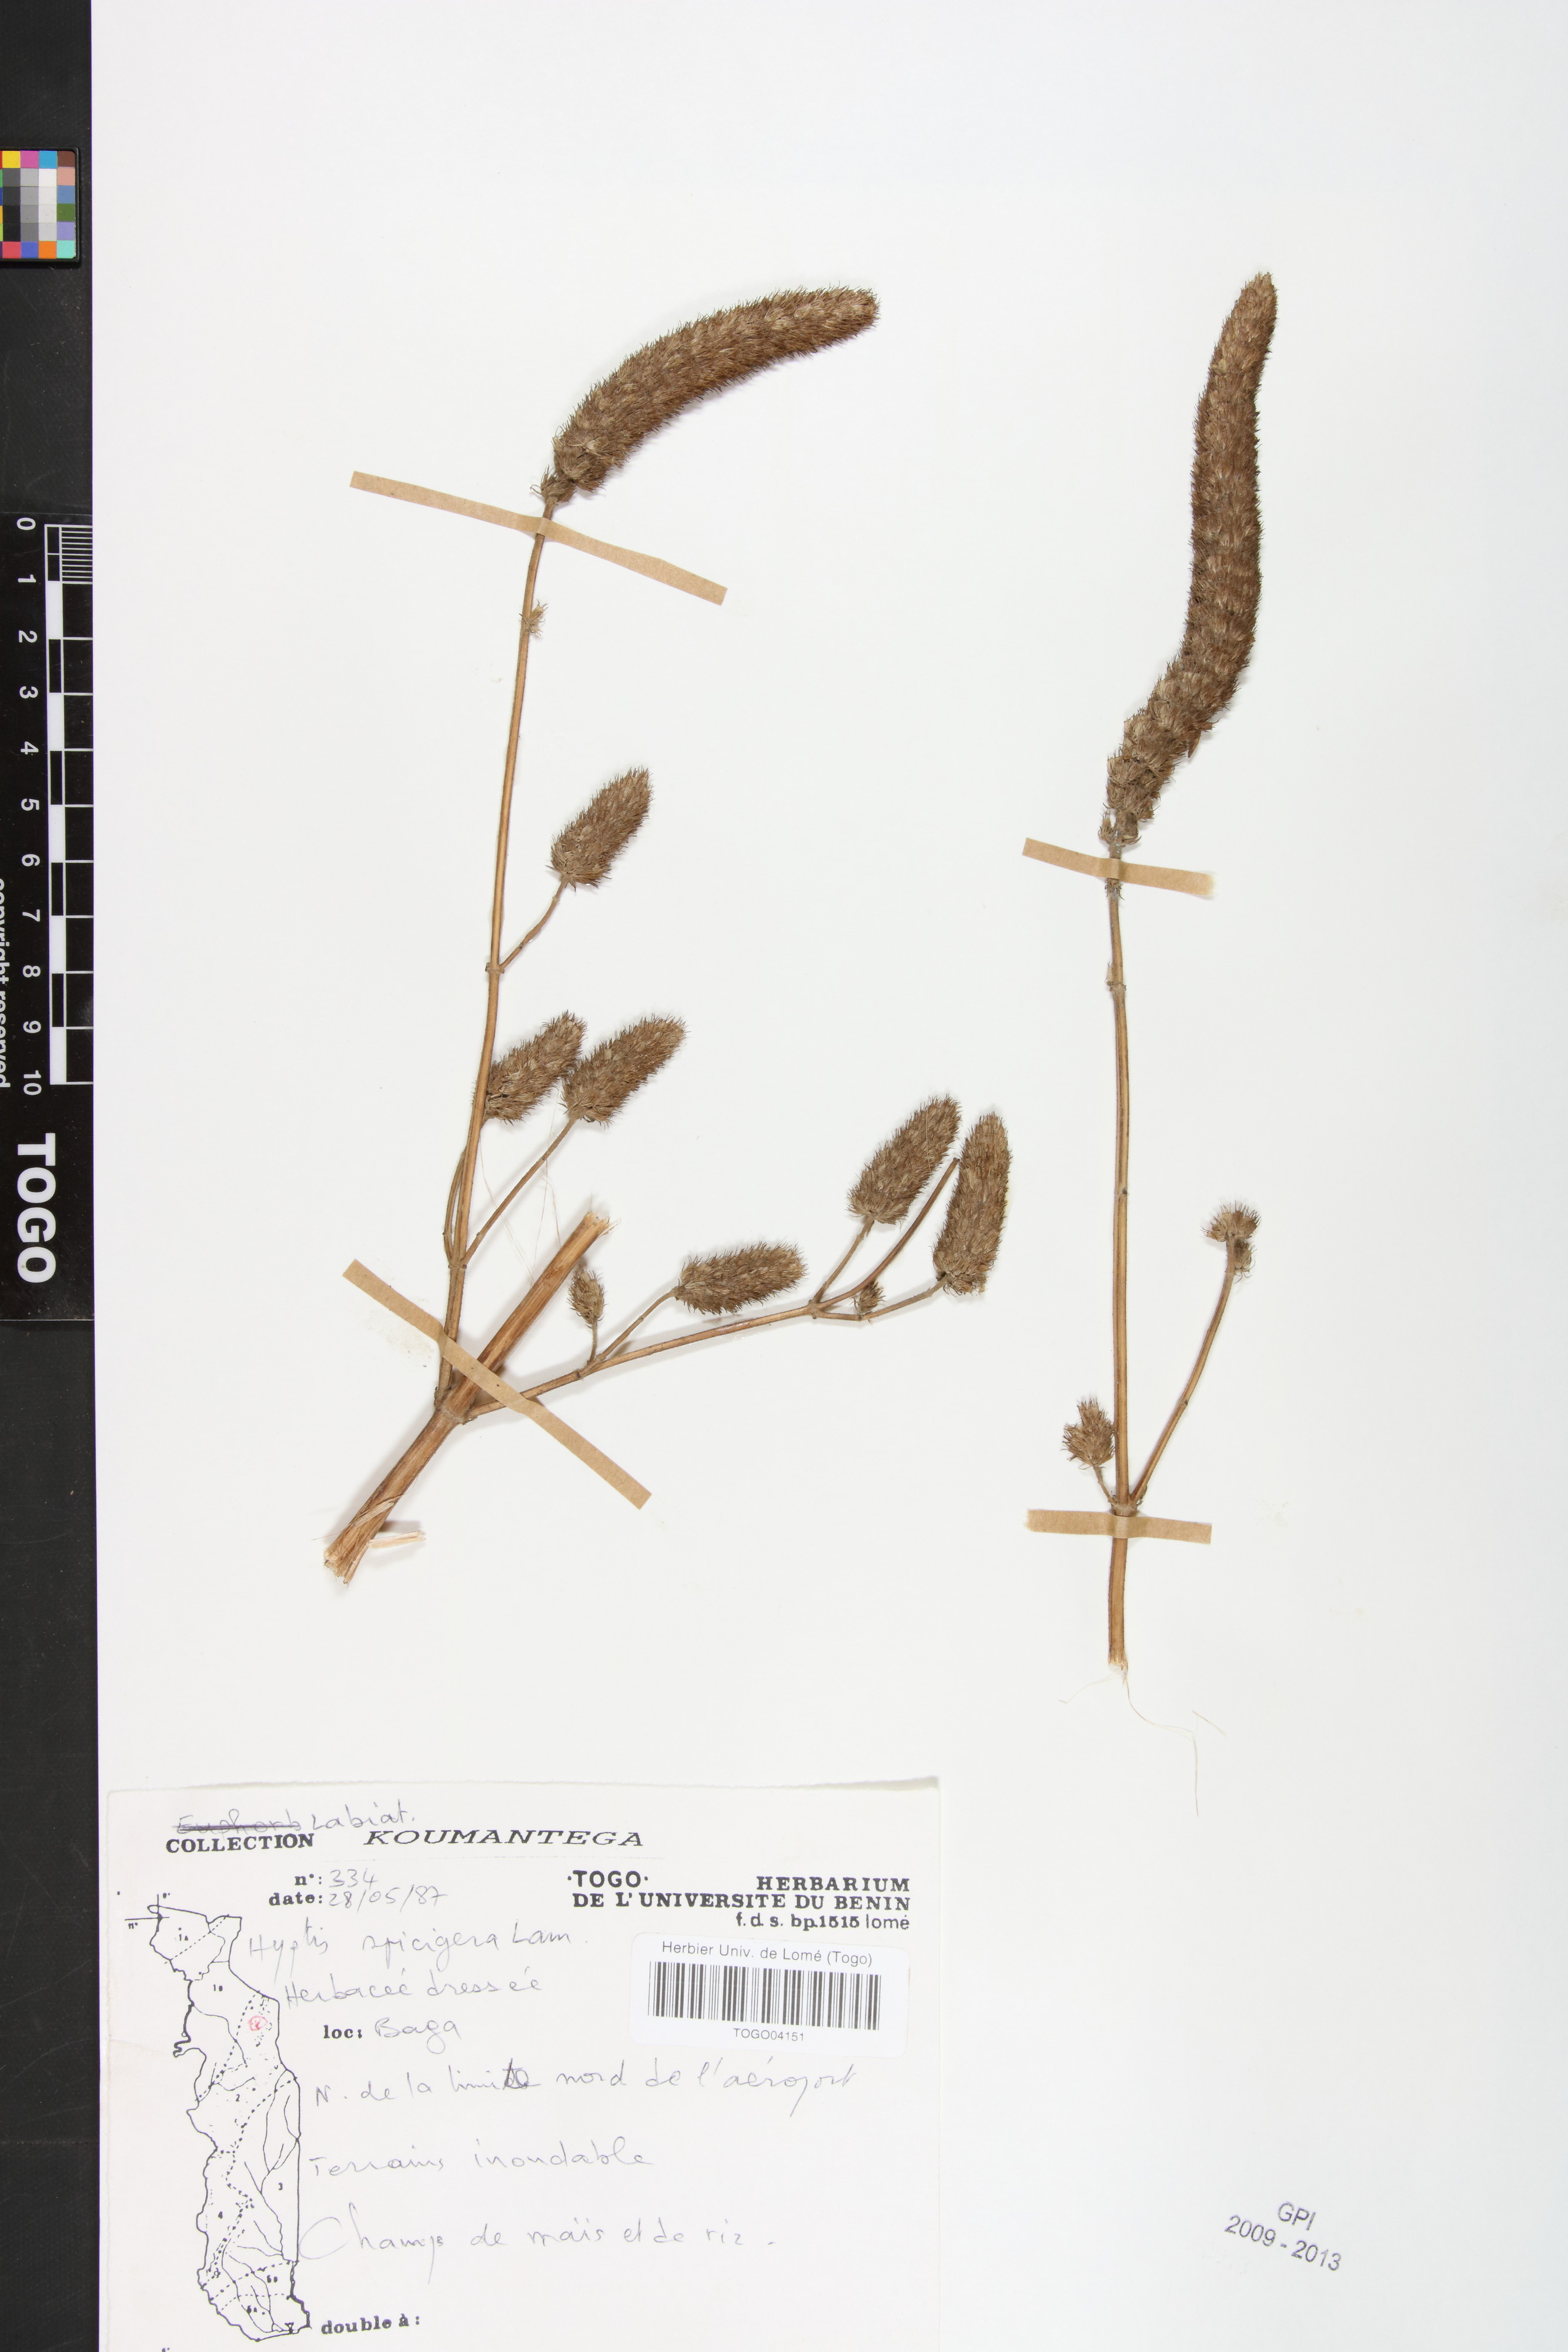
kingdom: Plantae
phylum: Tracheophyta
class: Magnoliopsida
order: Lamiales
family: Lamiaceae
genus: Cantinoa
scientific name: Cantinoa americana
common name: Black-sesame
